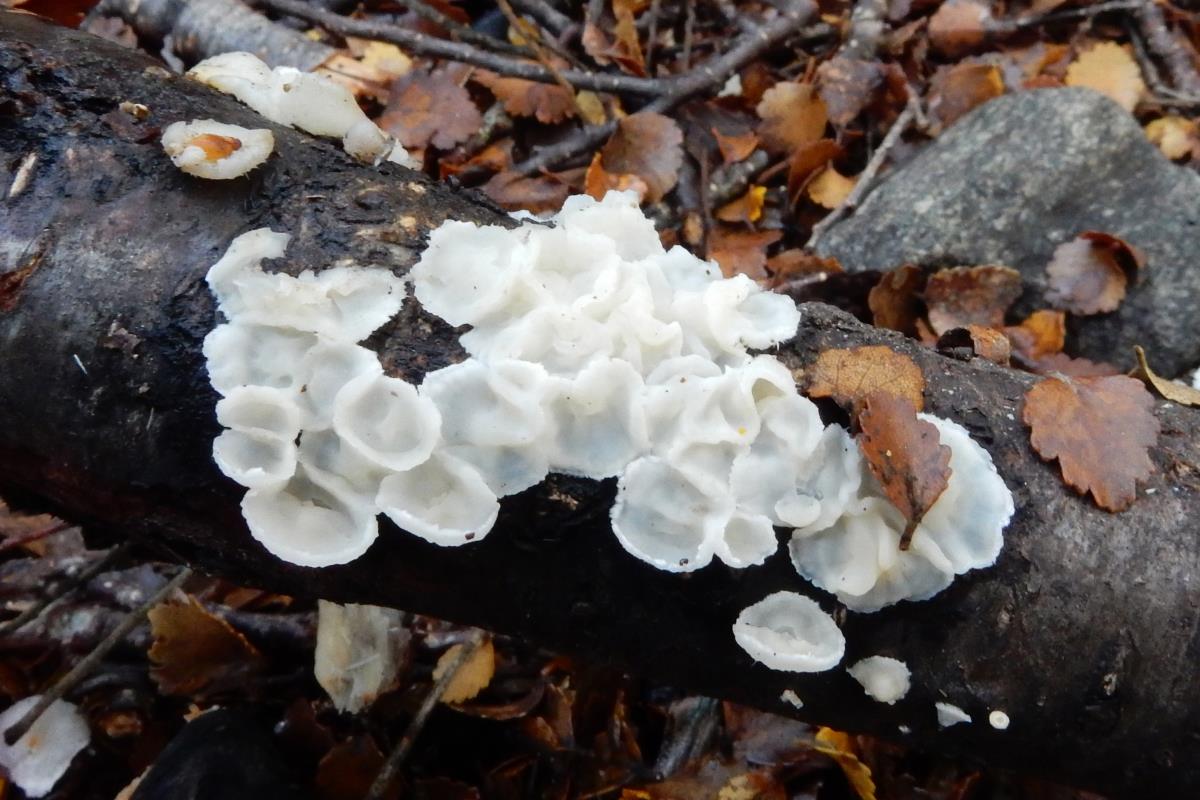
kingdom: Fungi
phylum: Basidiomycota
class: Agaricomycetes
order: Polyporales
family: Irpicaceae
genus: Gloeoporus
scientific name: Gloeoporus phlebophorus
